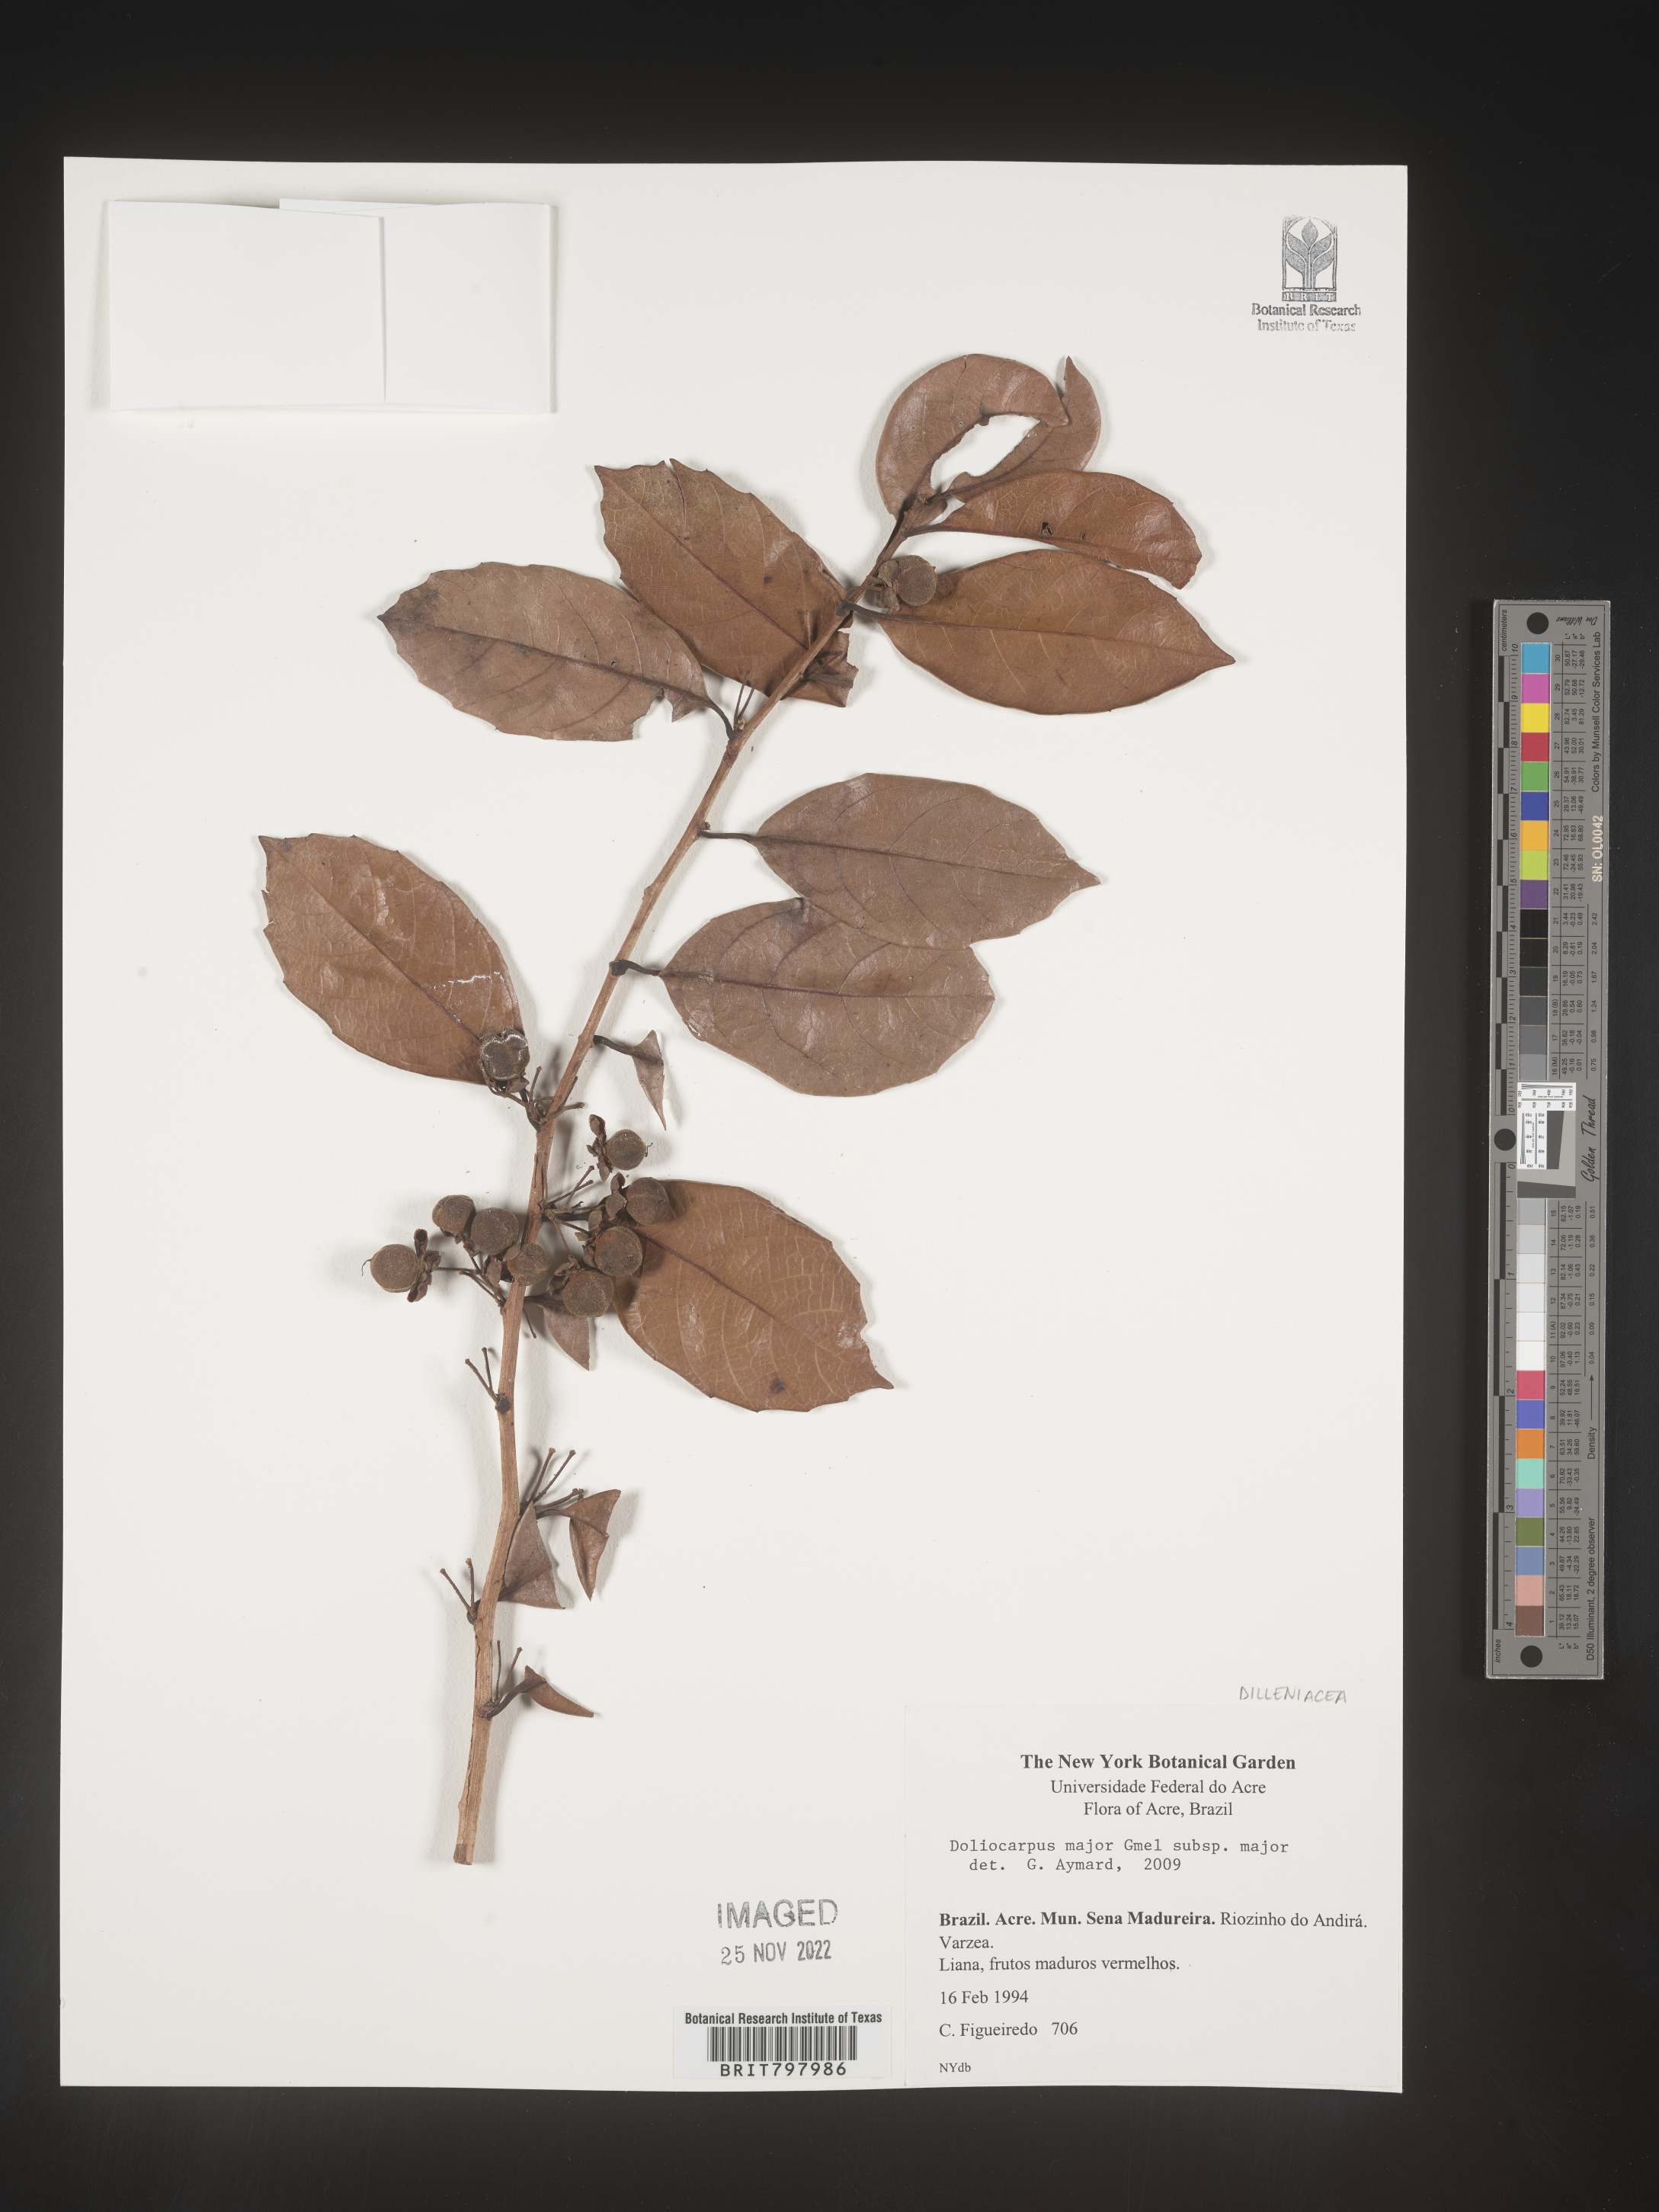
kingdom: Plantae
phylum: Tracheophyta
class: Magnoliopsida
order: Dilleniales
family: Dilleniaceae
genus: Doliocarpus
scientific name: Doliocarpus
